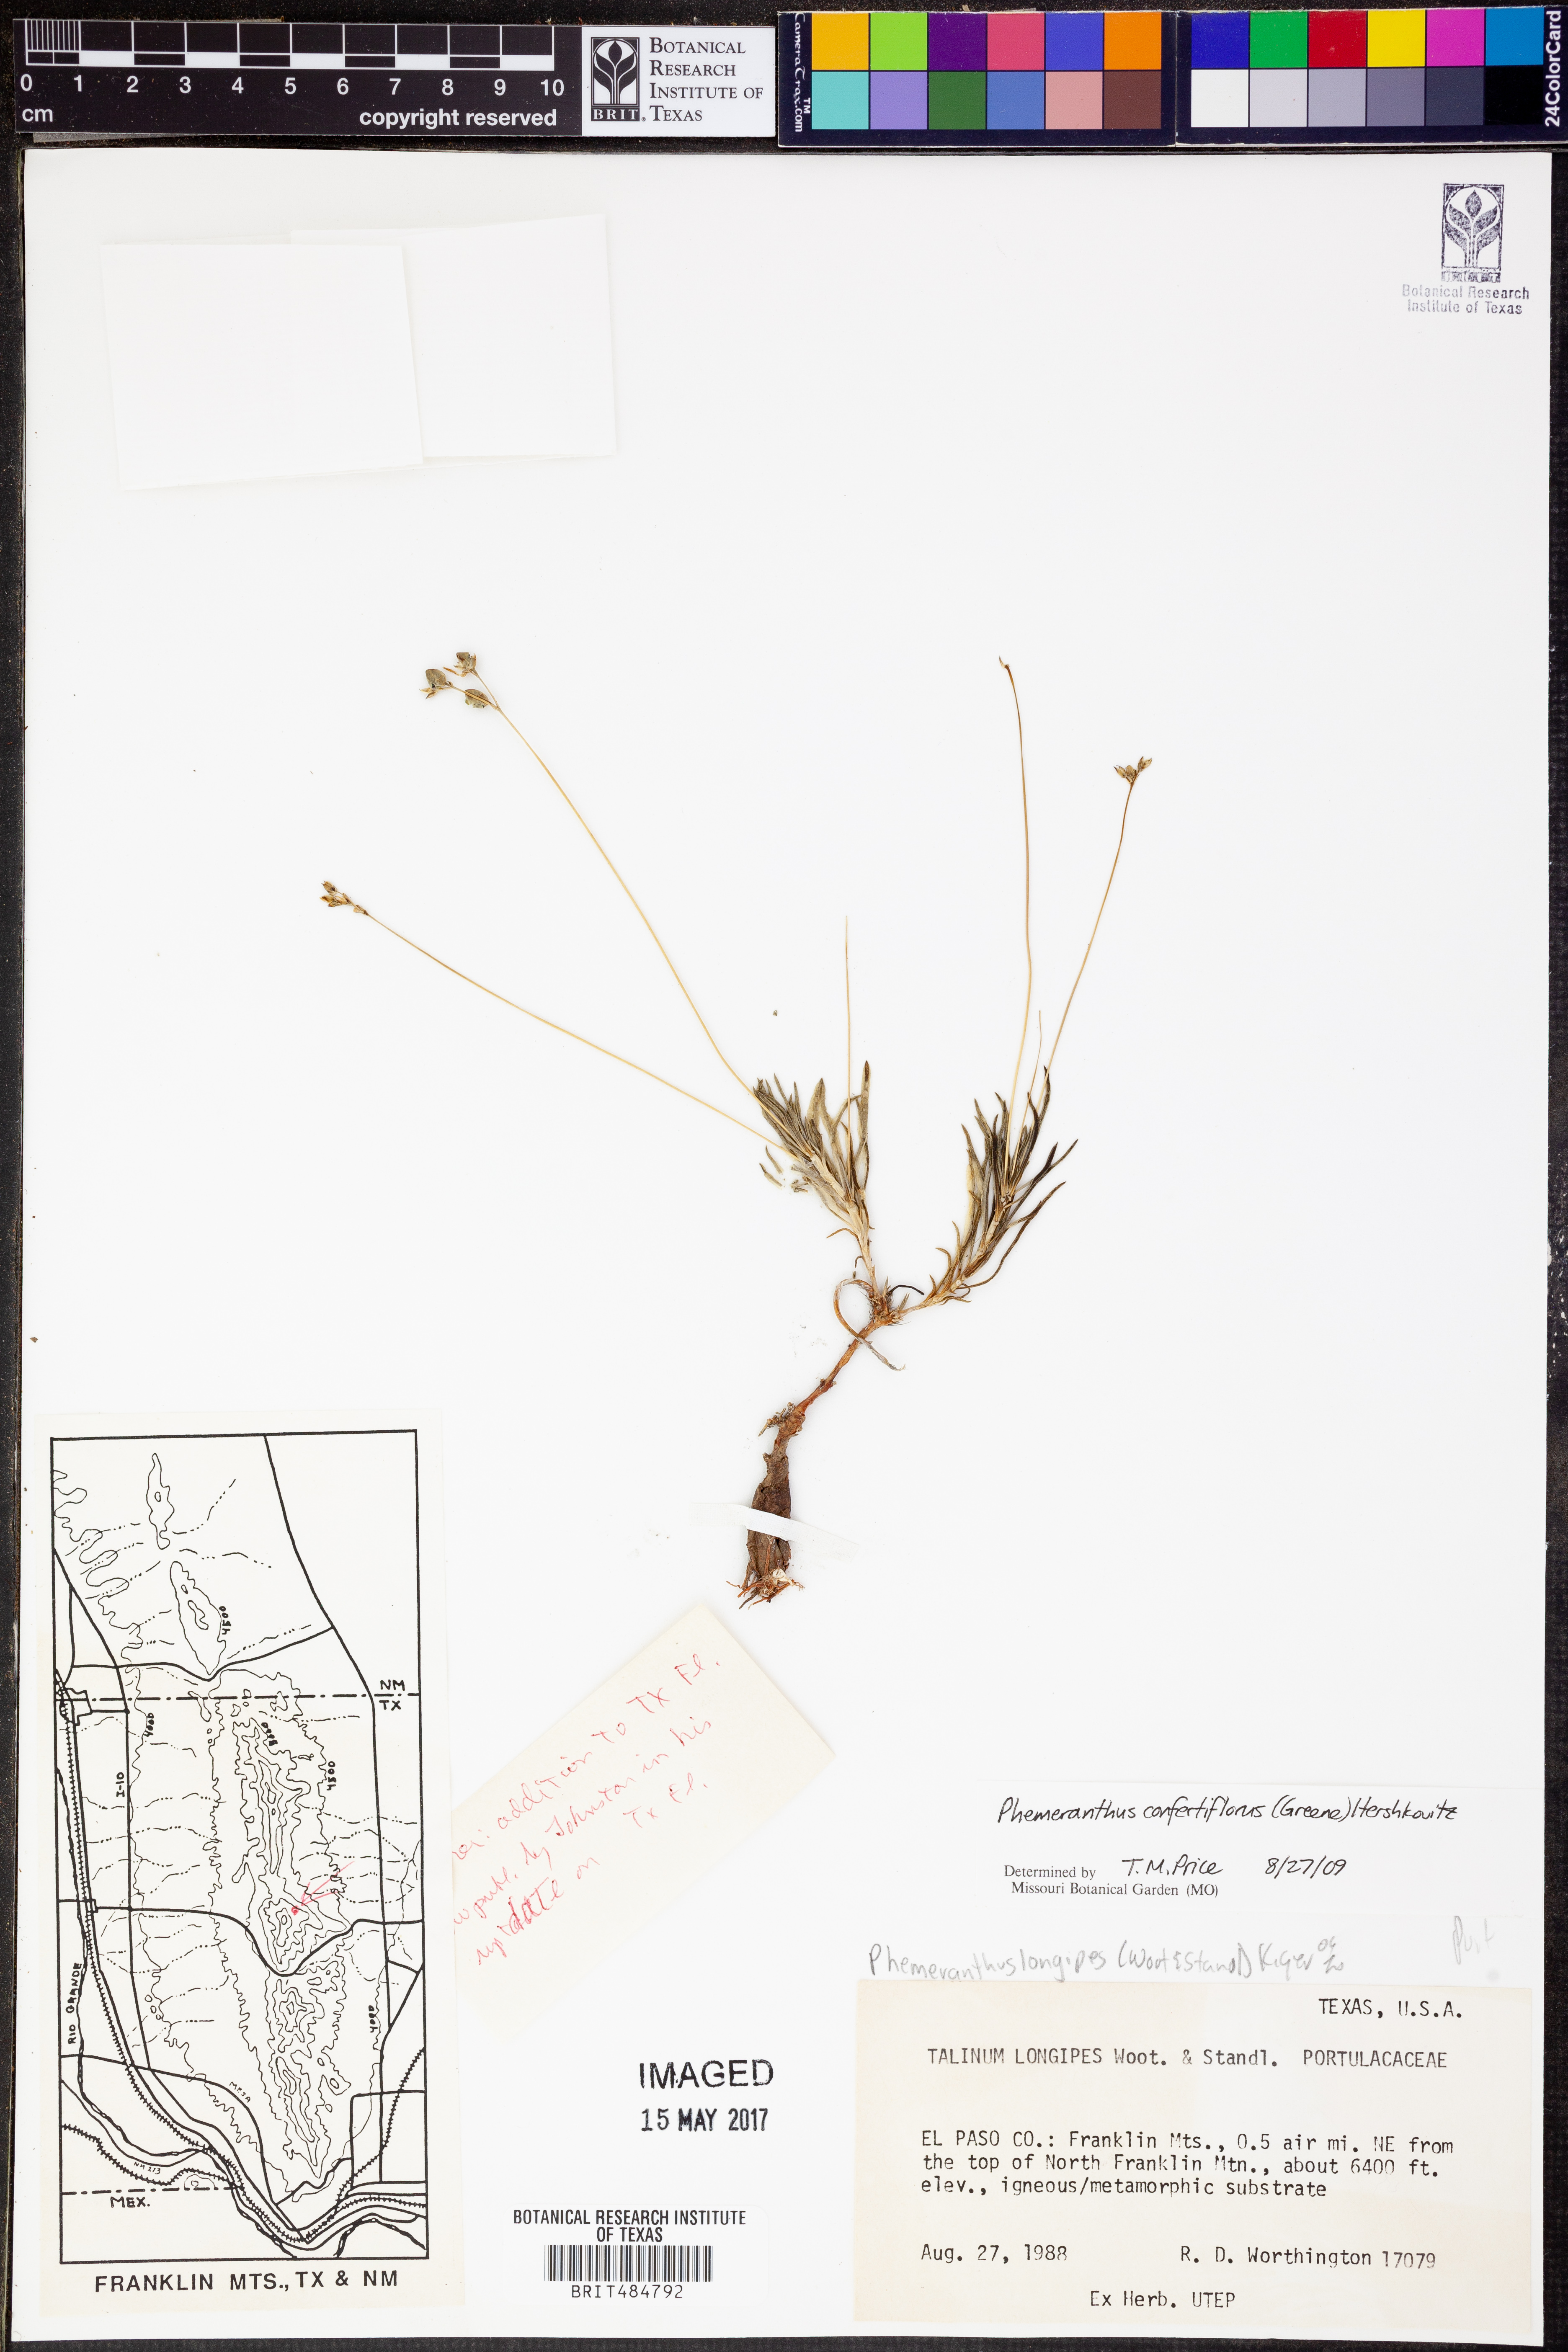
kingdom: Plantae
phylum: Tracheophyta
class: Magnoliopsida
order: Caryophyllales
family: Montiaceae
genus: Phemeranthus
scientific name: Phemeranthus longipes
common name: Pink fameflower
